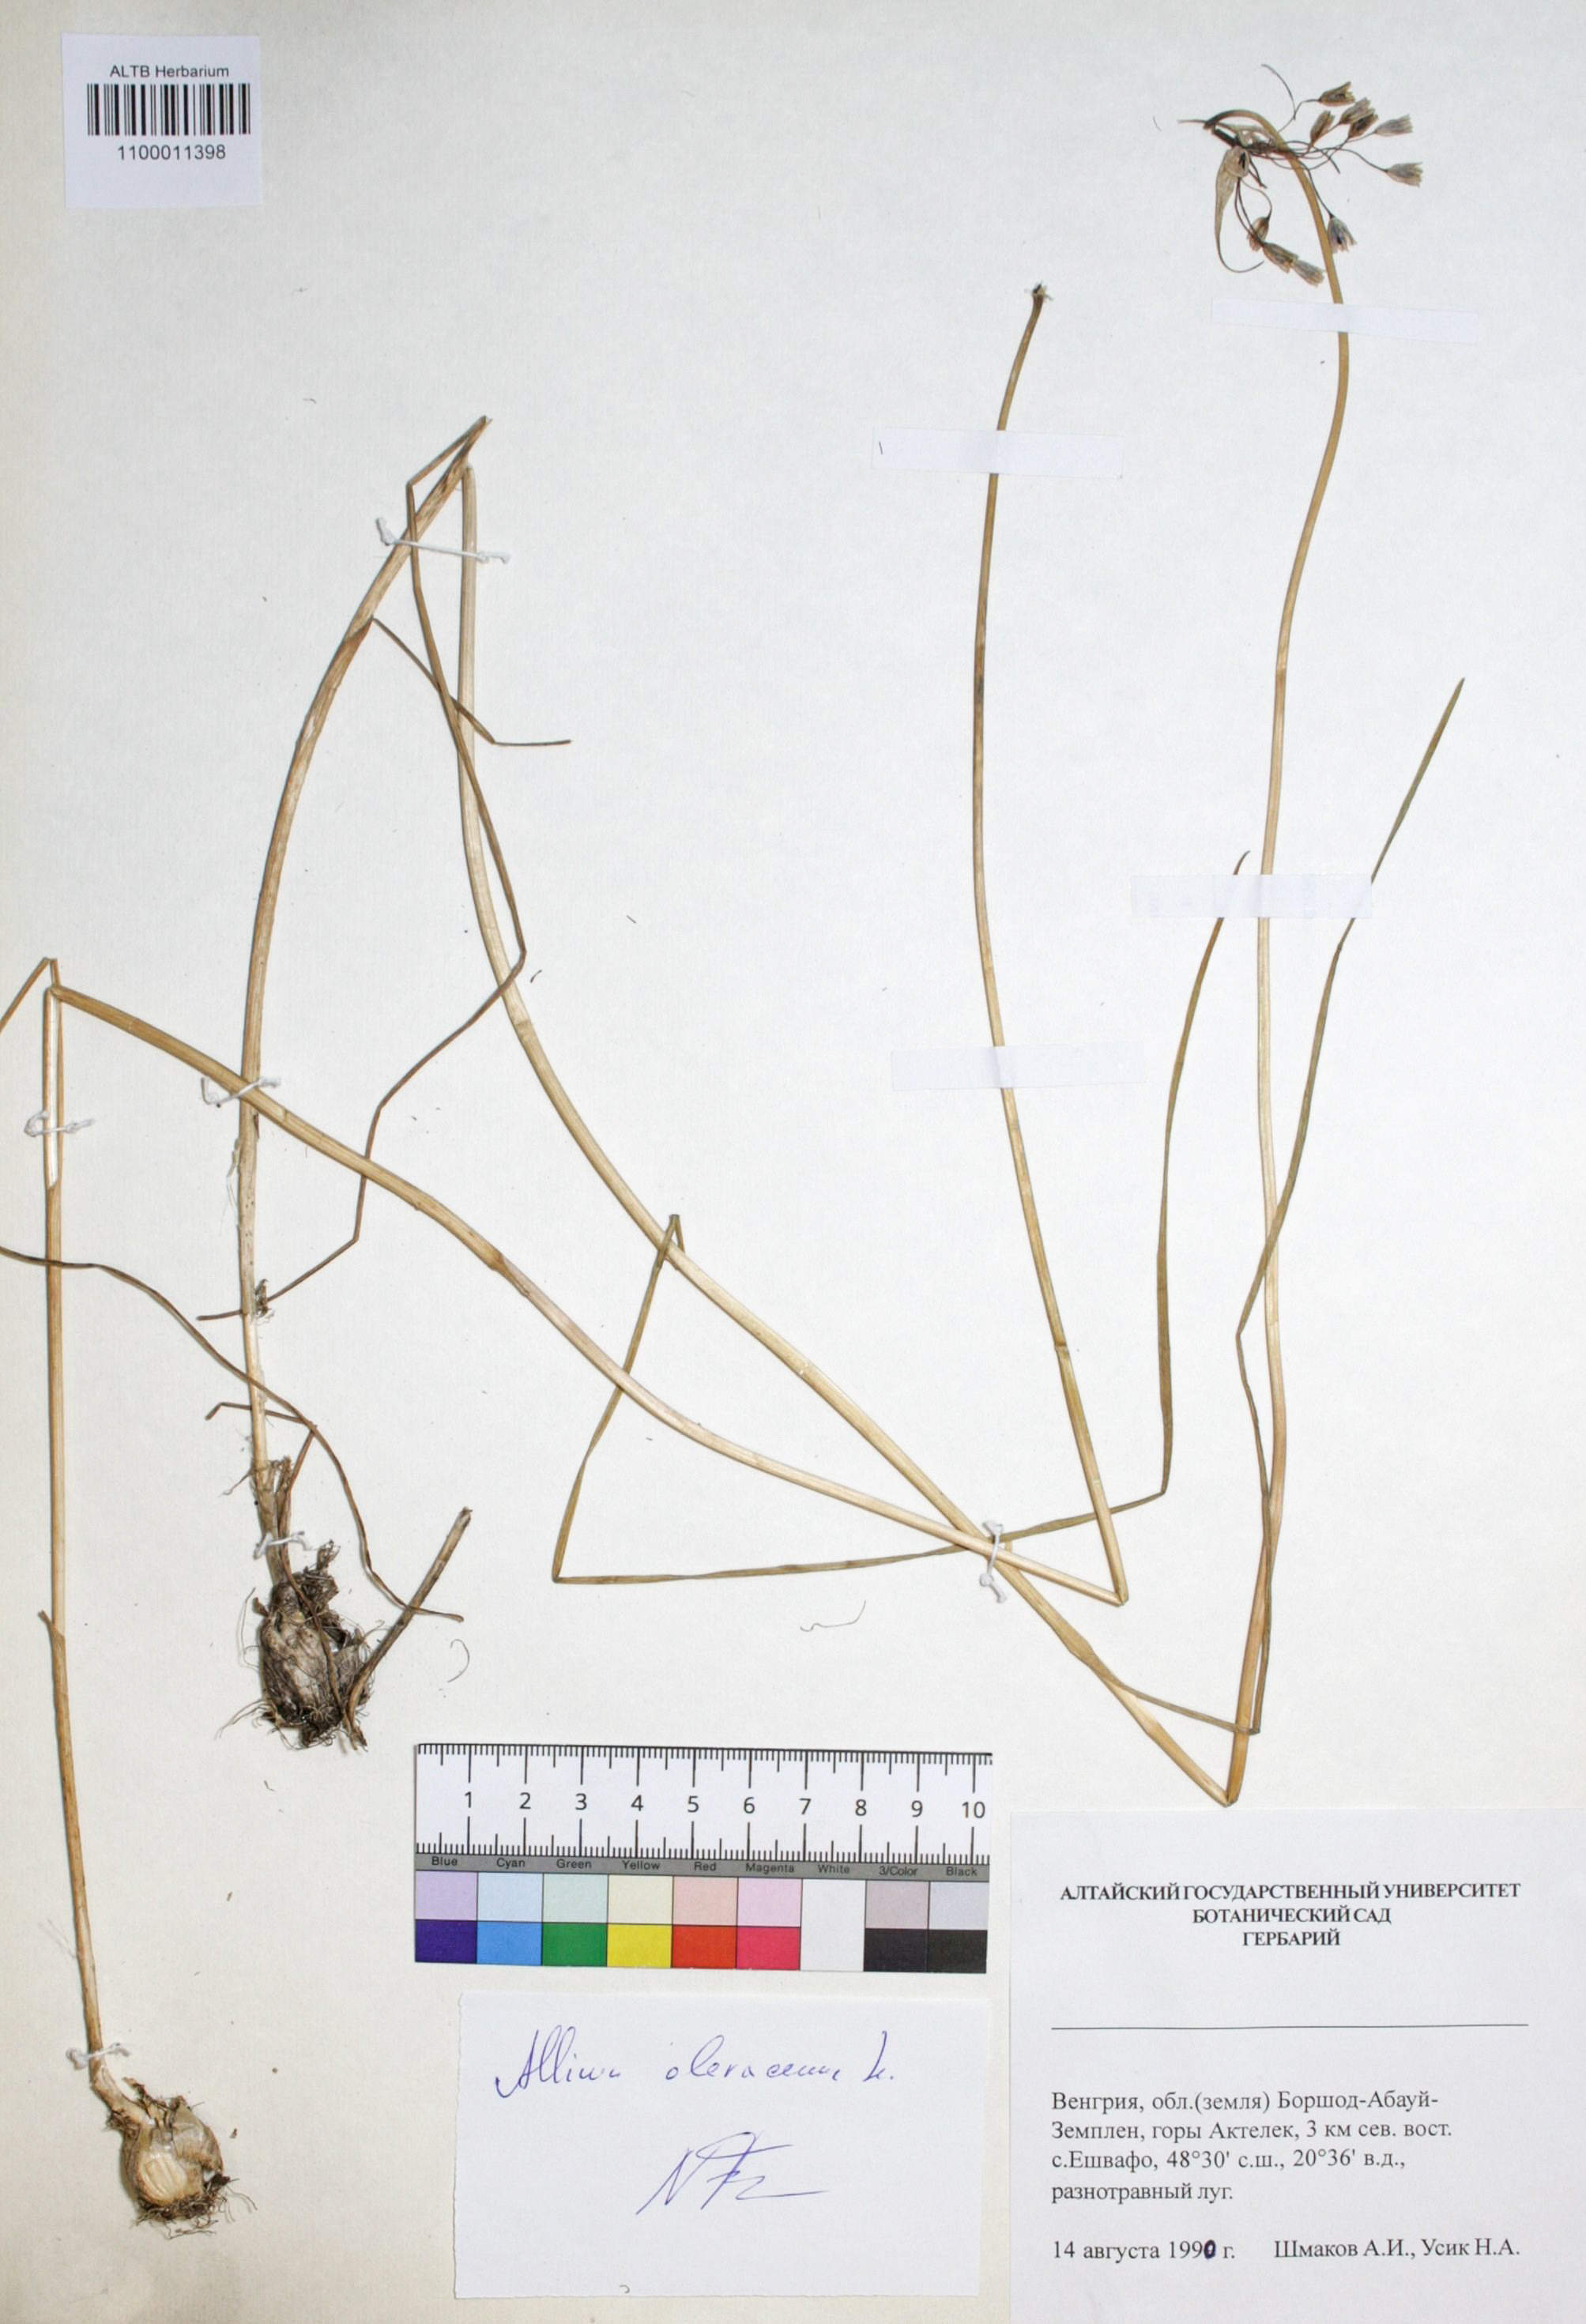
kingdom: Plantae
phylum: Tracheophyta
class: Liliopsida
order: Asparagales
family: Amaryllidaceae
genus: Allium
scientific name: Allium oleraceum
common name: Field garlic
